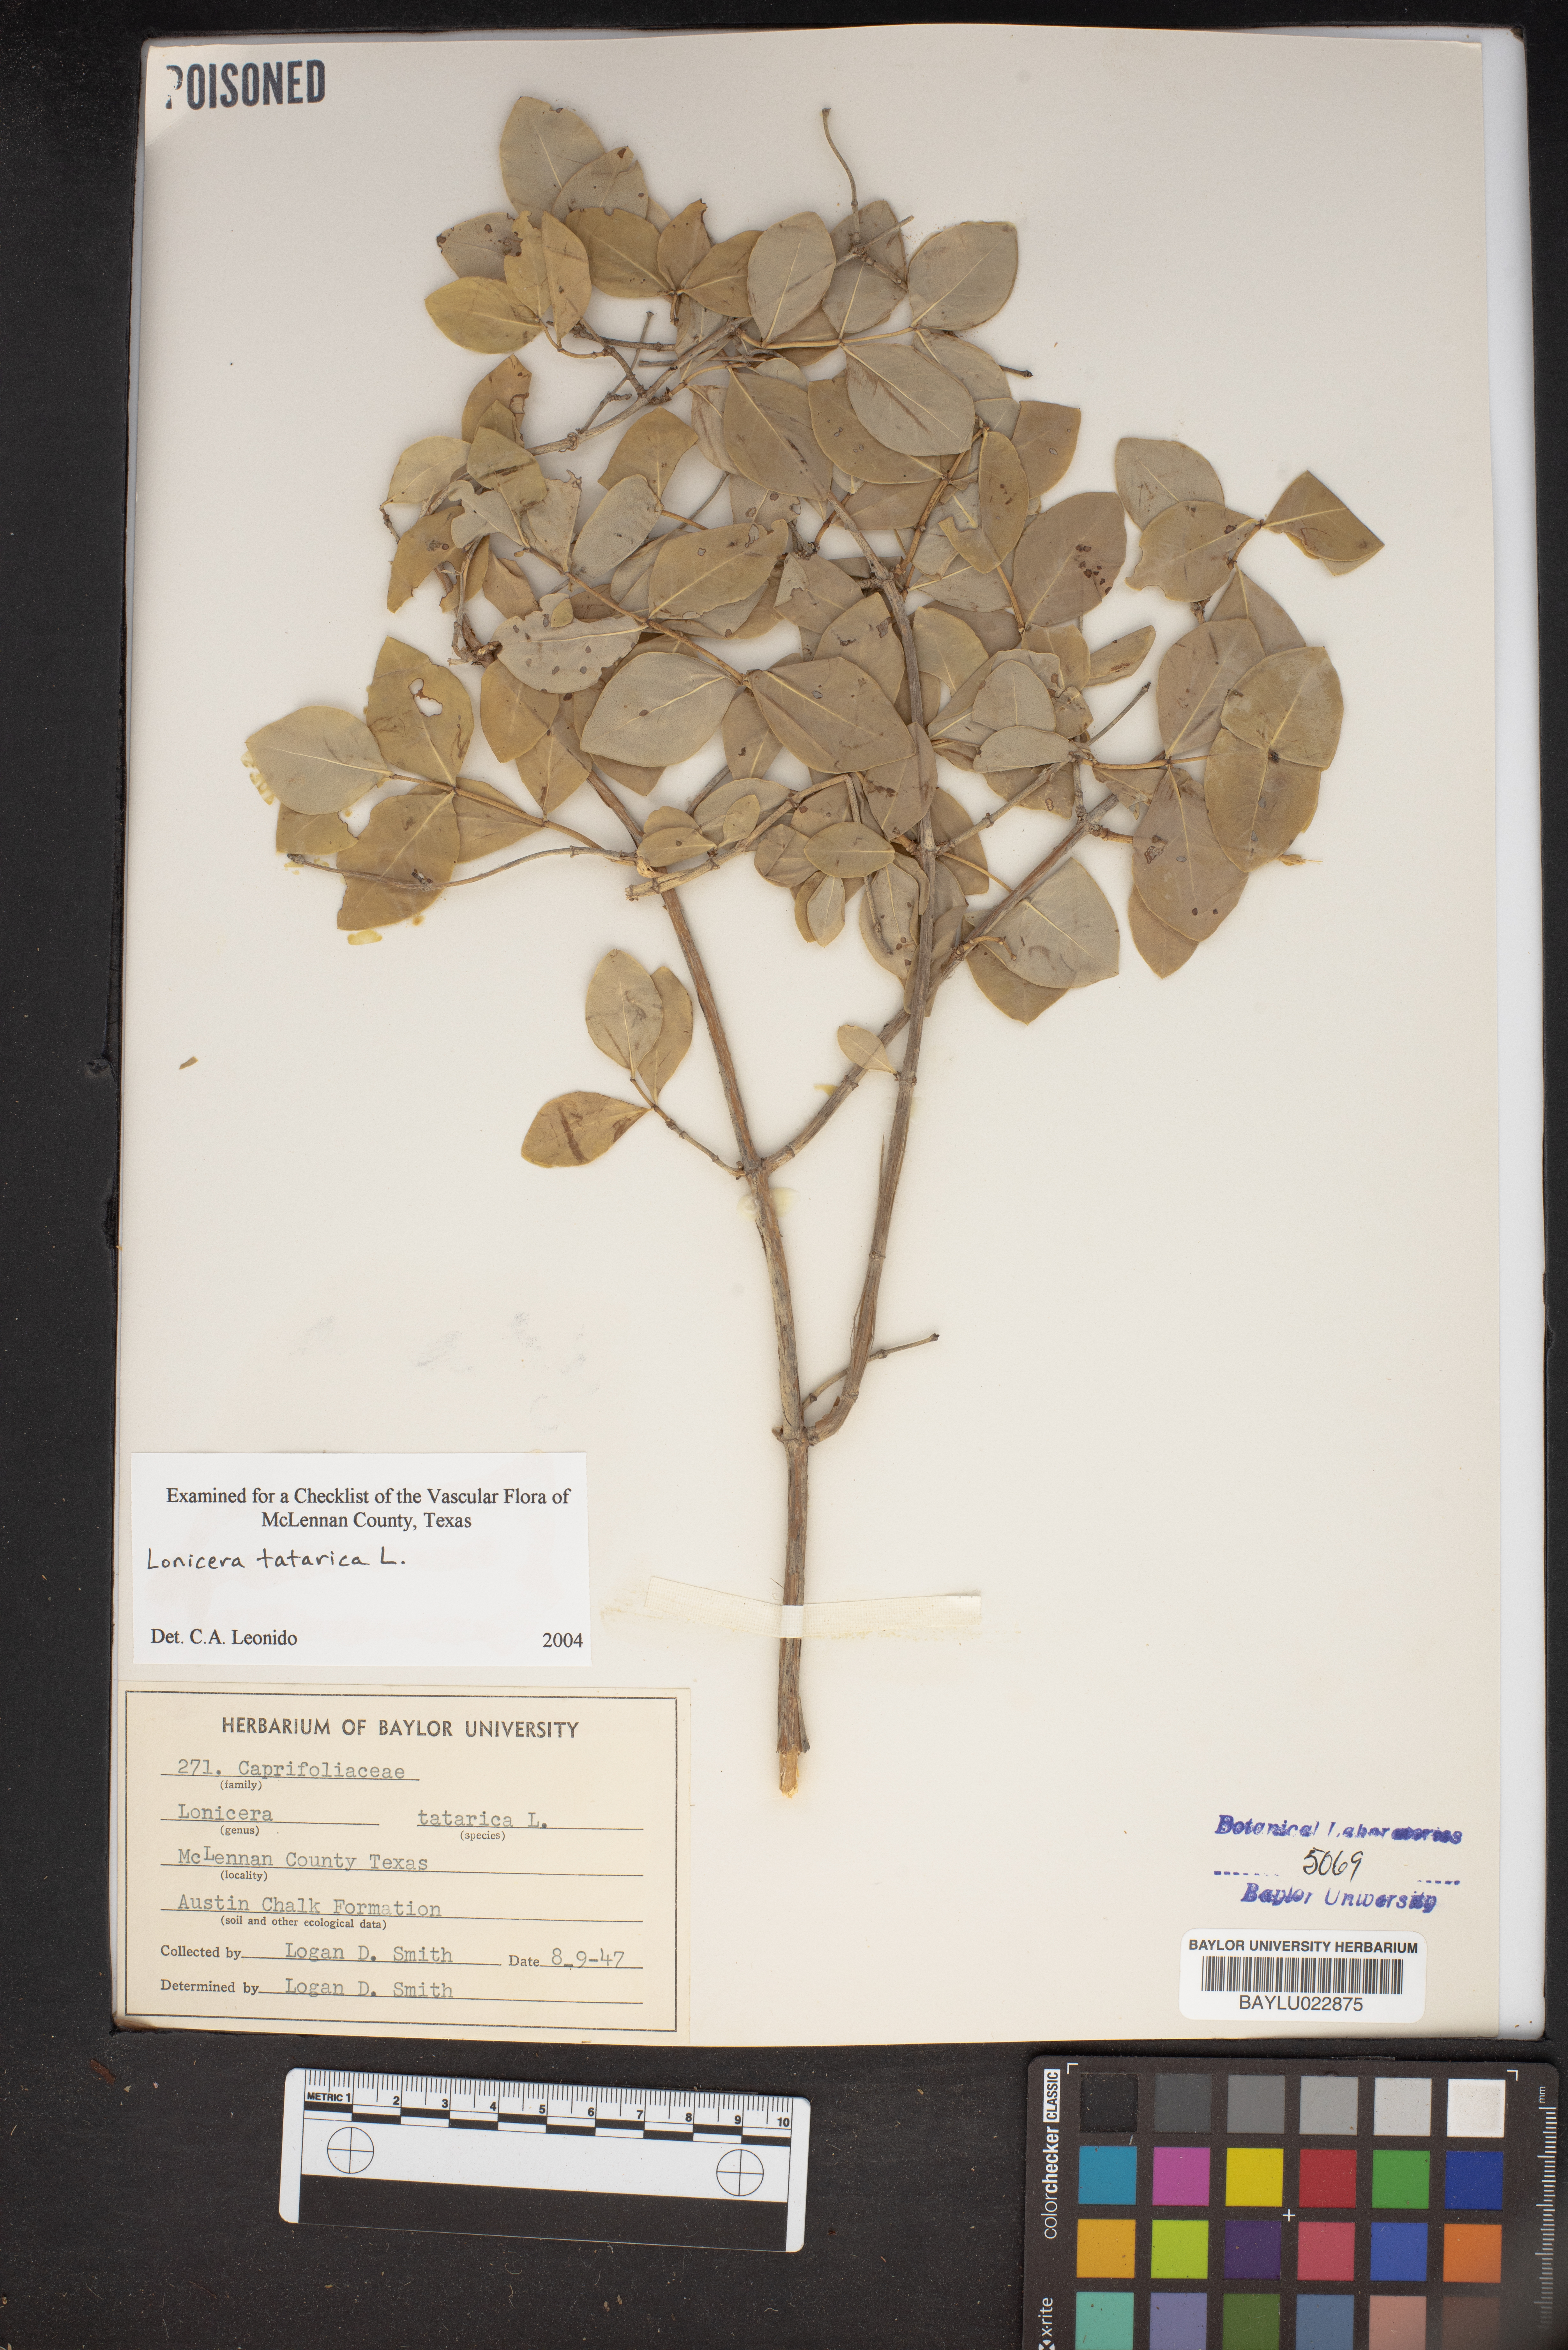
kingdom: Plantae
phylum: Tracheophyta
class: Magnoliopsida
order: Dipsacales
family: Caprifoliaceae
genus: Lonicera
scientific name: Lonicera tatarica
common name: Tatarian honeysuckle
